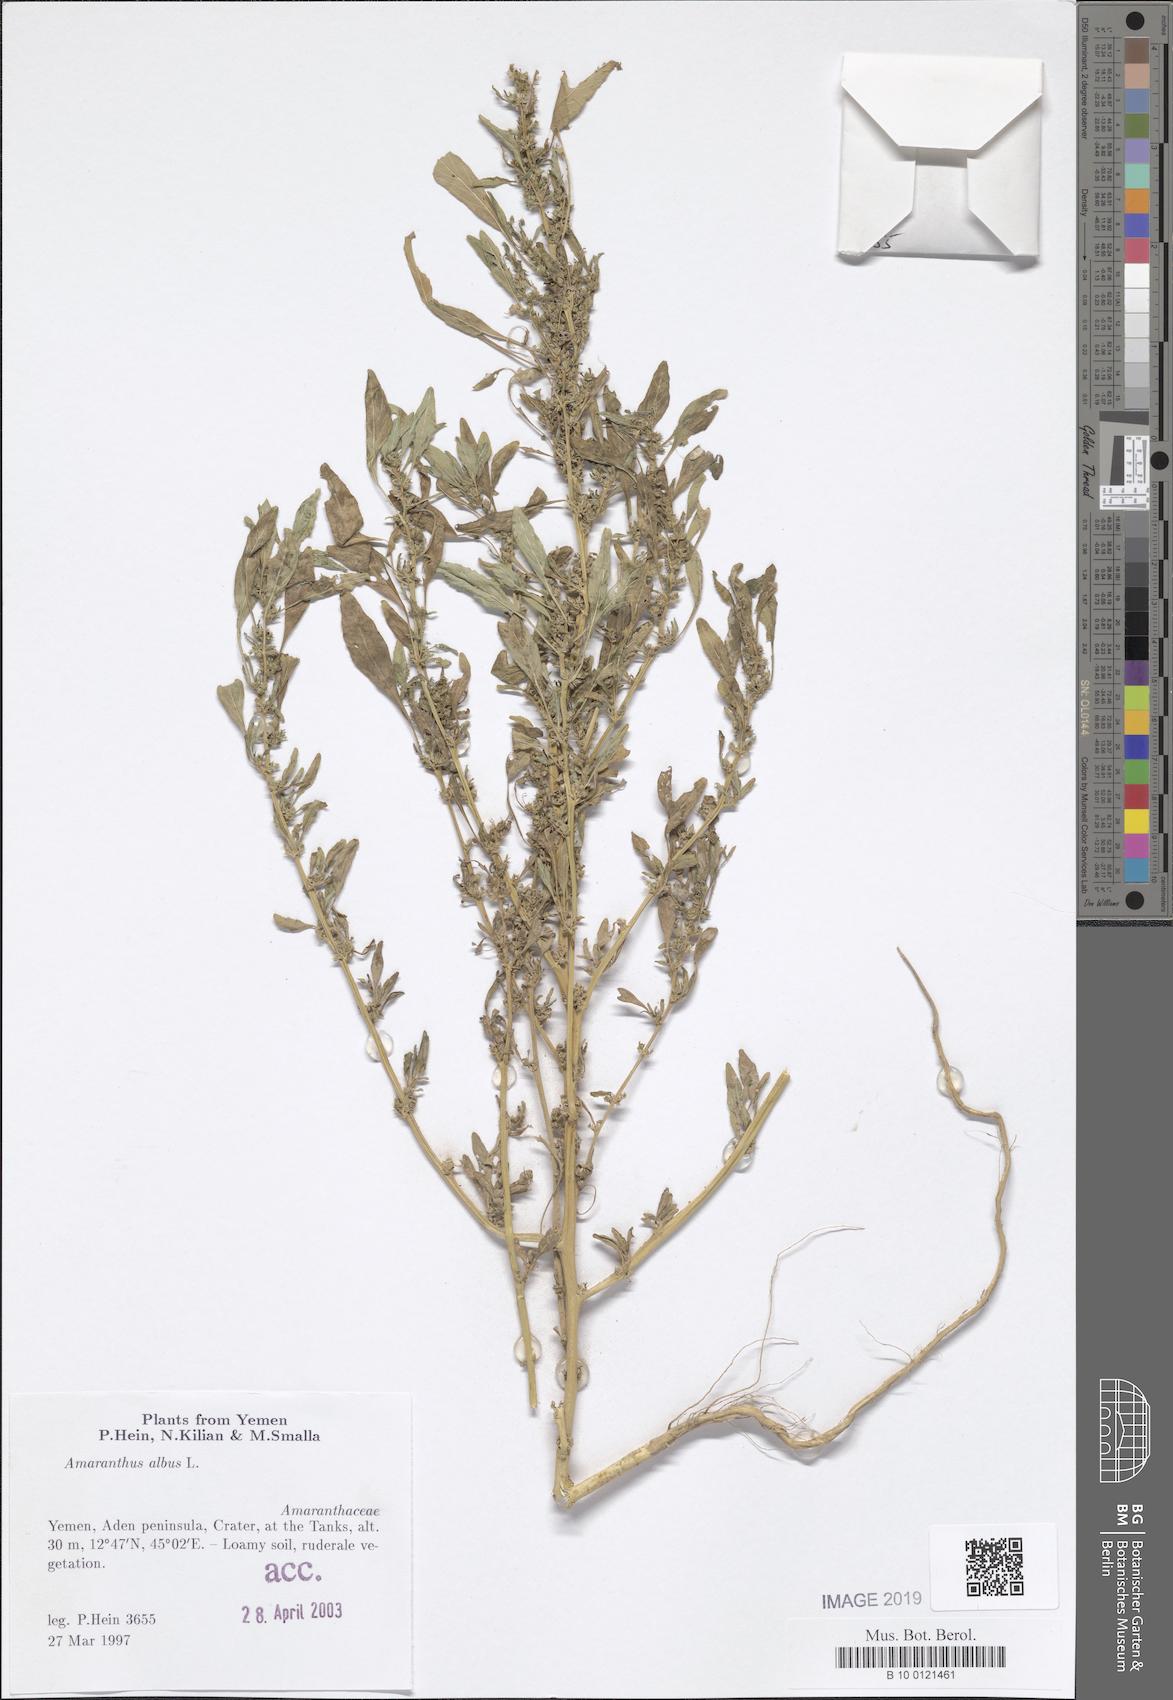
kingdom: Plantae
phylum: Tracheophyta
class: Magnoliopsida
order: Caryophyllales
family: Amaranthaceae
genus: Amaranthus
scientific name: Amaranthus albus
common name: White pigweed
